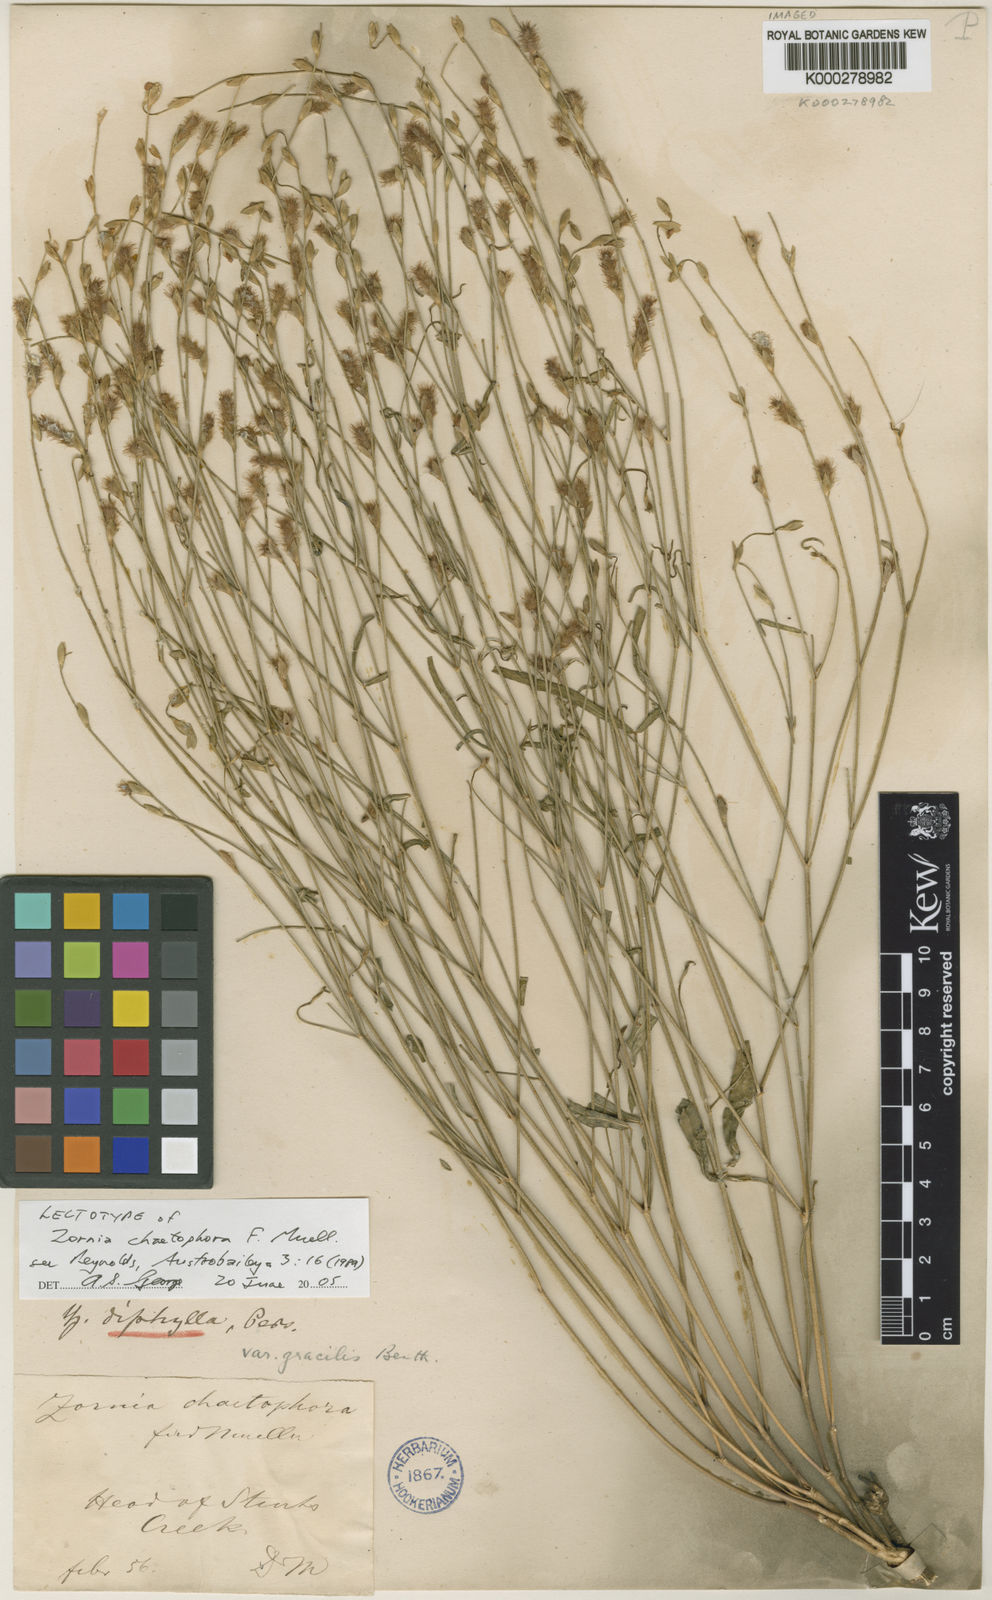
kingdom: Plantae
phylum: Tracheophyta
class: Magnoliopsida
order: Fabales
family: Fabaceae
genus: Zornia
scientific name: Zornia chaetophora
